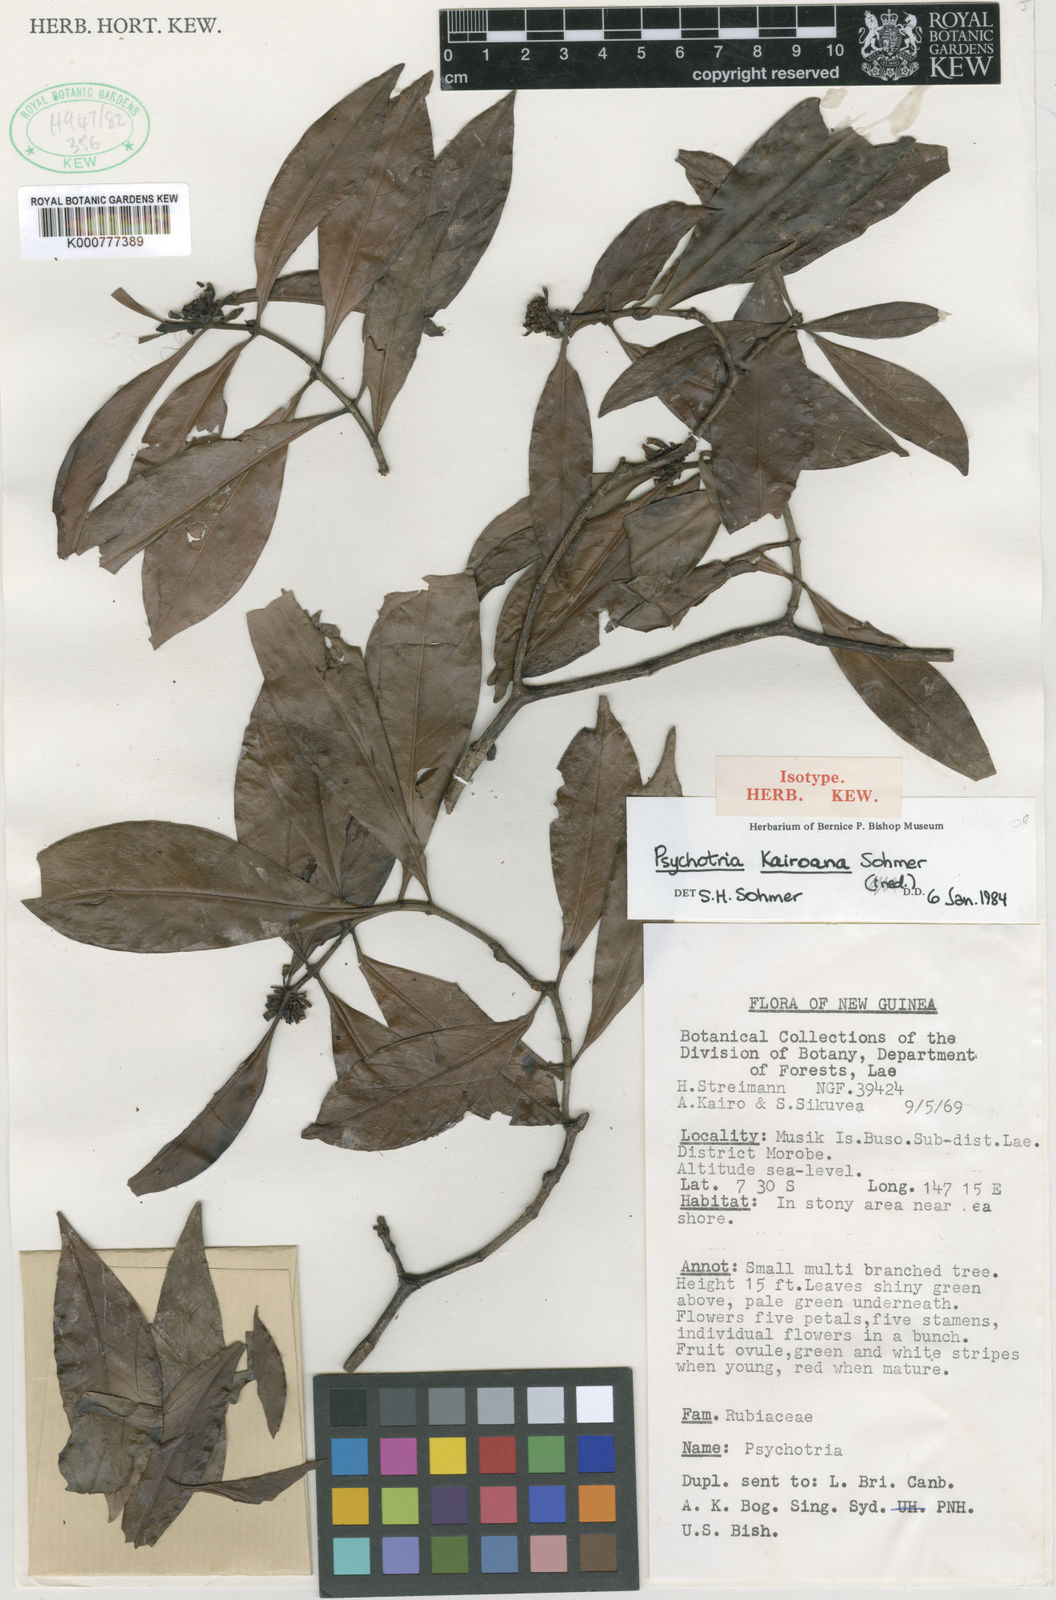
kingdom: Plantae
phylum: Tracheophyta
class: Magnoliopsida
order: Gentianales
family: Rubiaceae
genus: Psychotria
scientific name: Psychotria kairoana
